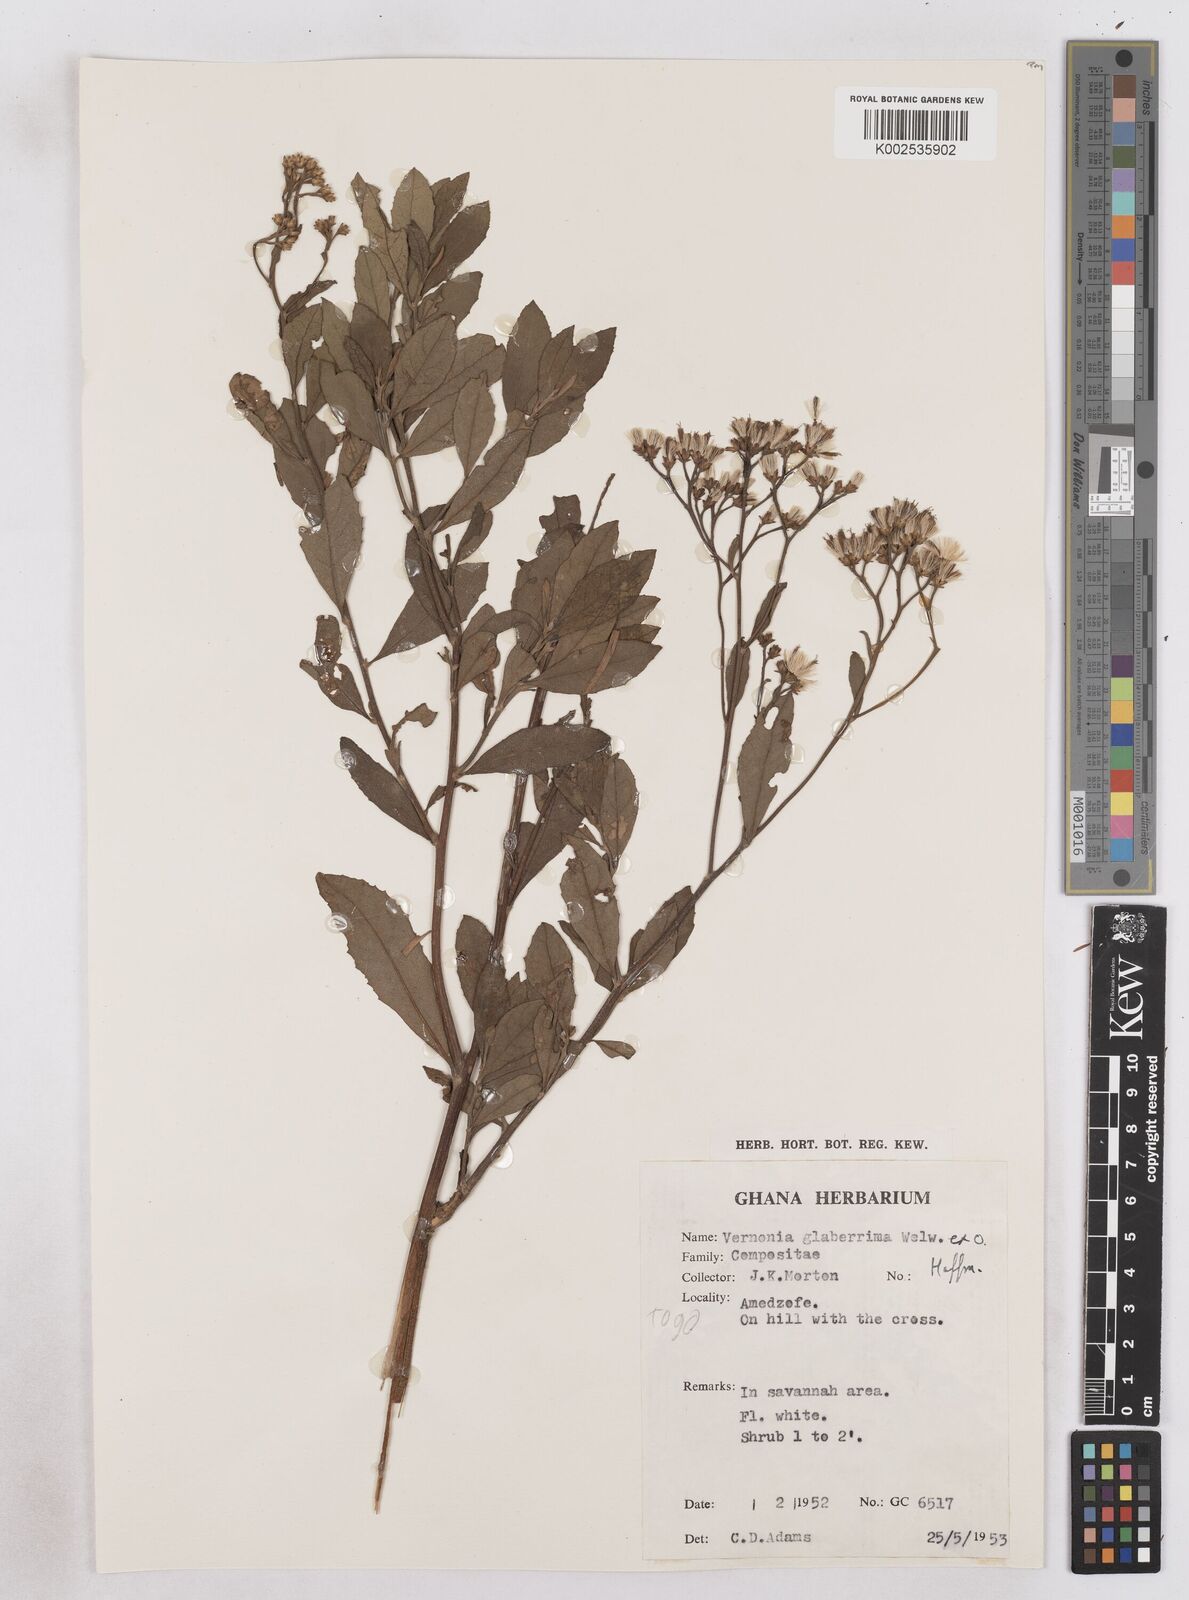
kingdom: Plantae
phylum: Tracheophyta
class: Magnoliopsida
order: Asterales
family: Asteraceae
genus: Gymnanthemum
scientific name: Gymnanthemum glaberrimum
